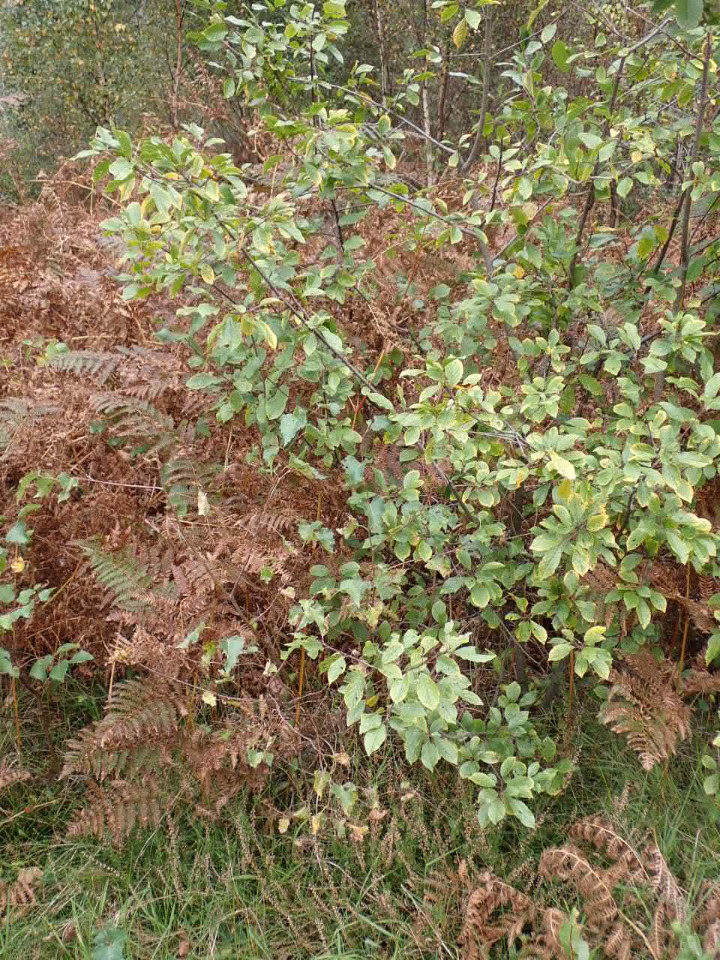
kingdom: Plantae
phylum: Tracheophyta
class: Magnoliopsida
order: Rosales
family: Rhamnaceae
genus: Frangula
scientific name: Frangula alnus
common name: Tørst
